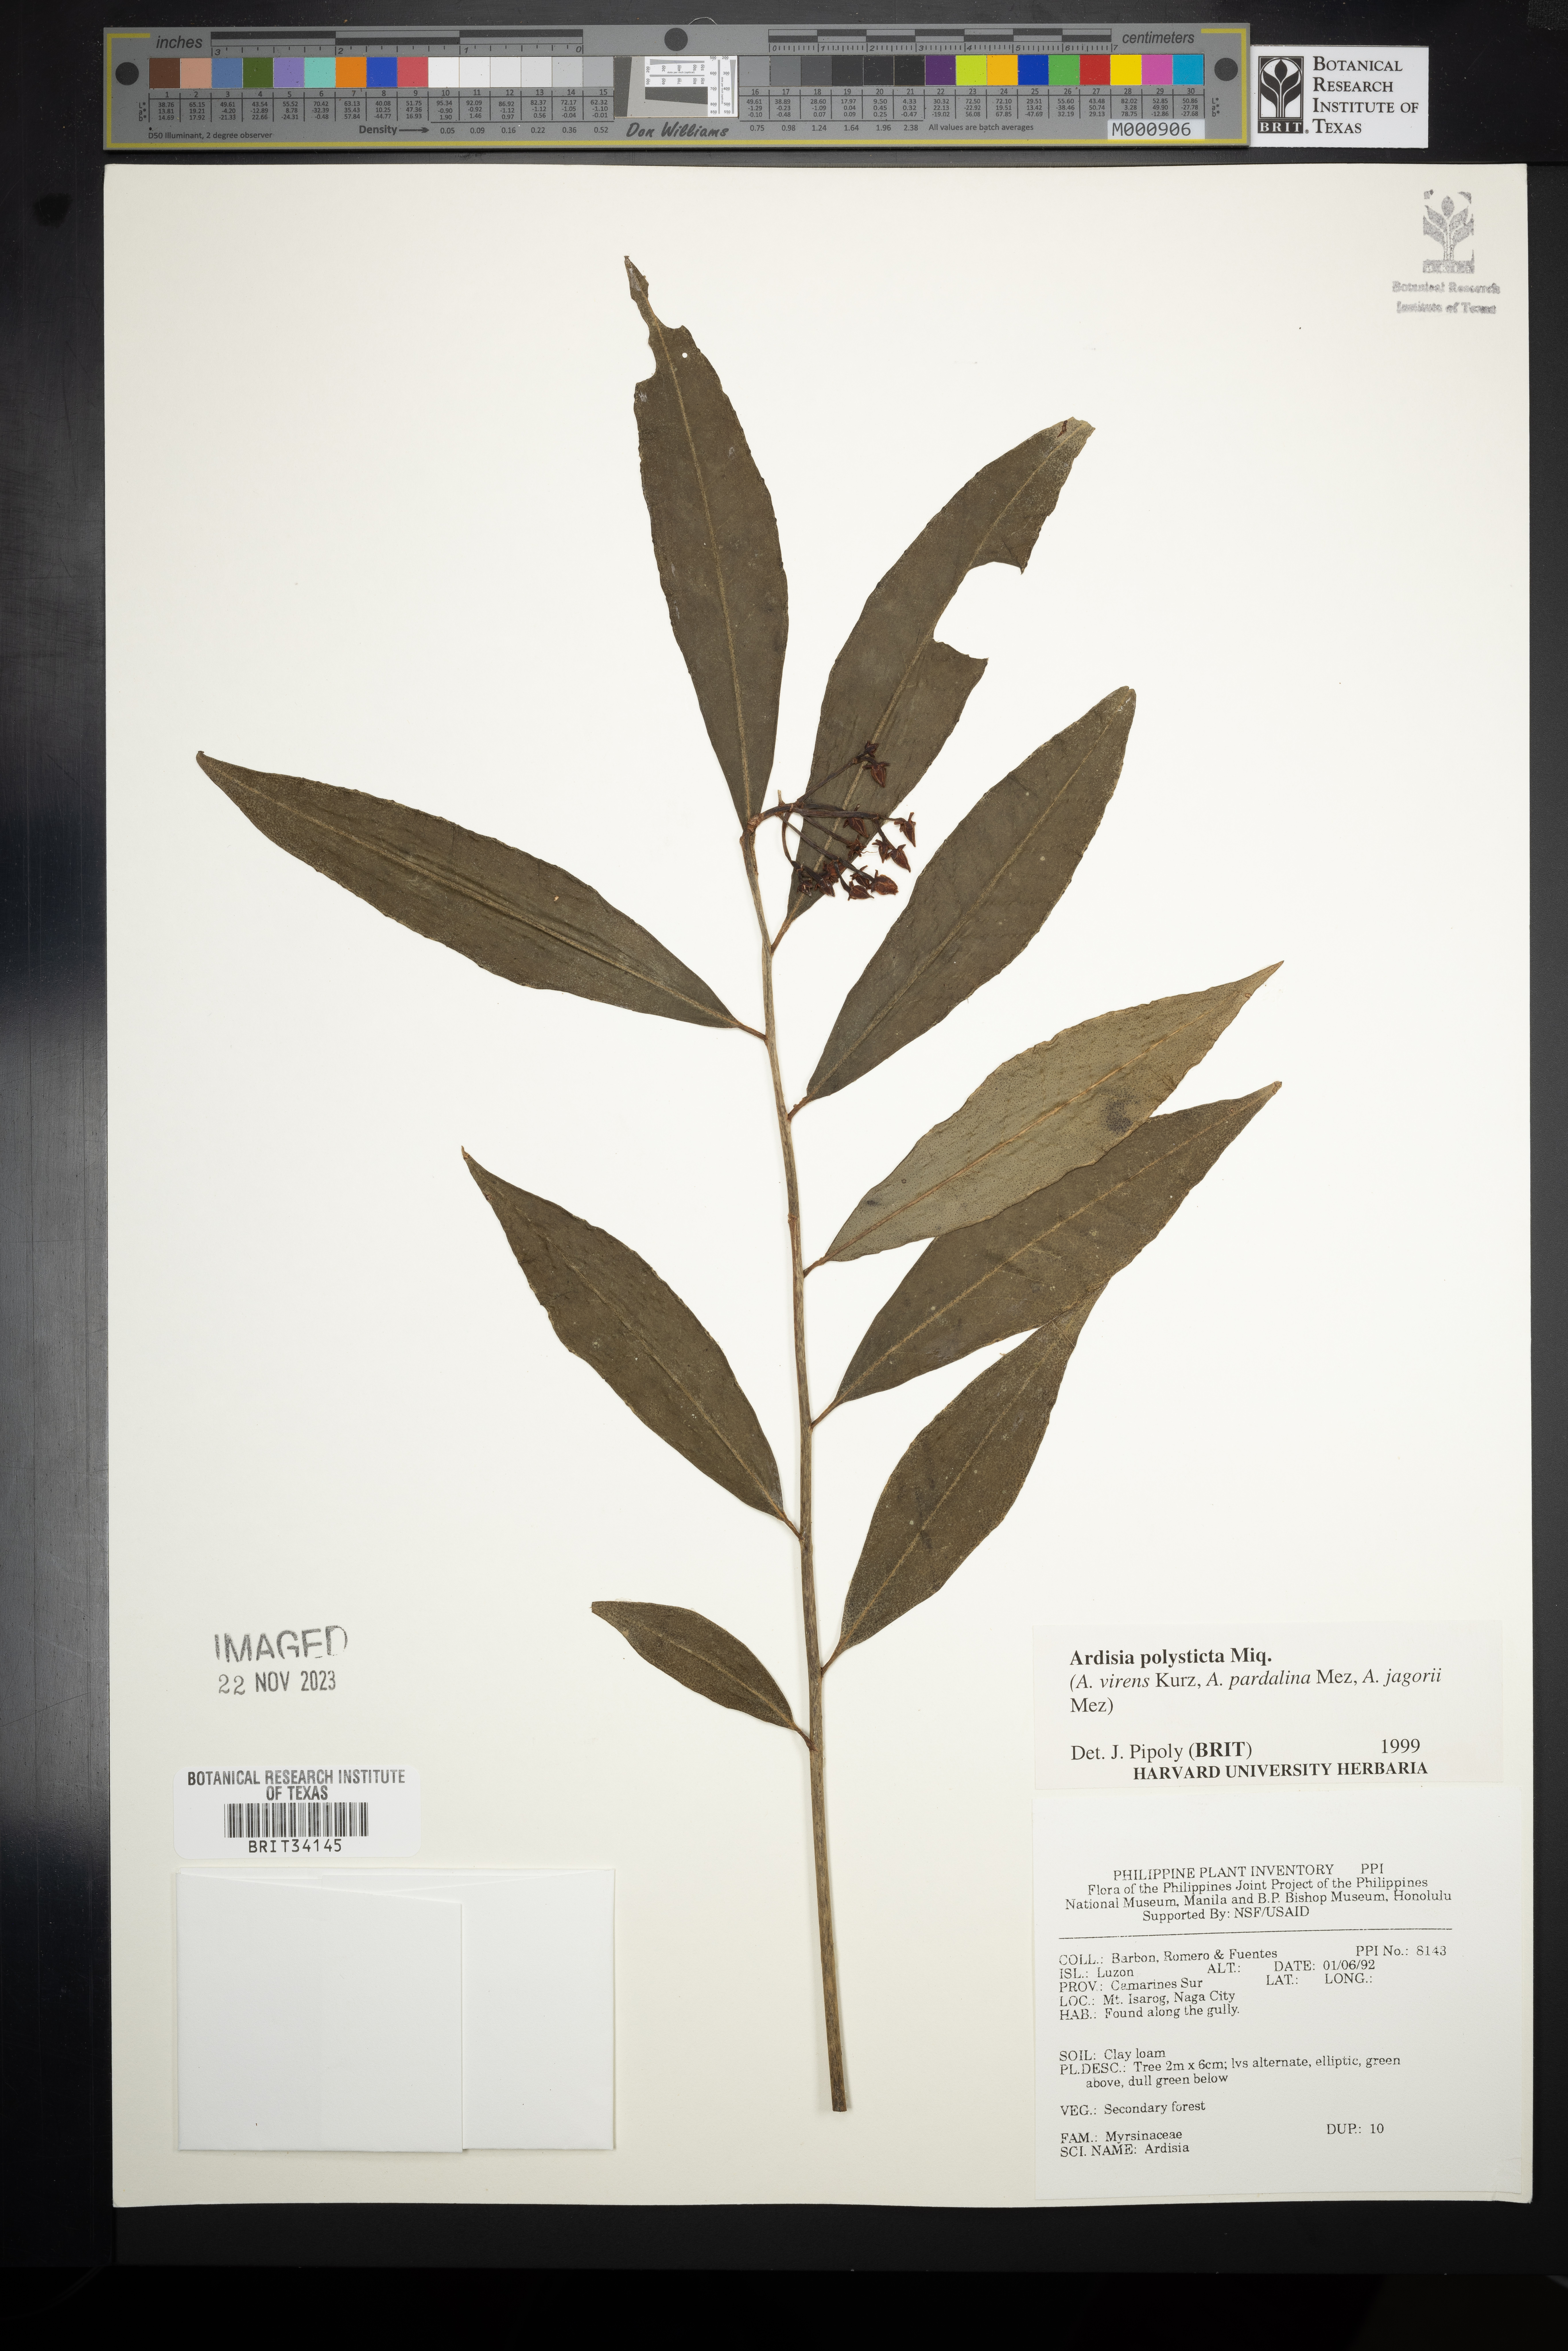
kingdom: Plantae
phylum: Tracheophyta
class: Magnoliopsida
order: Ericales
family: Primulaceae
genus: Ardisia
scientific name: Ardisia polysticta
